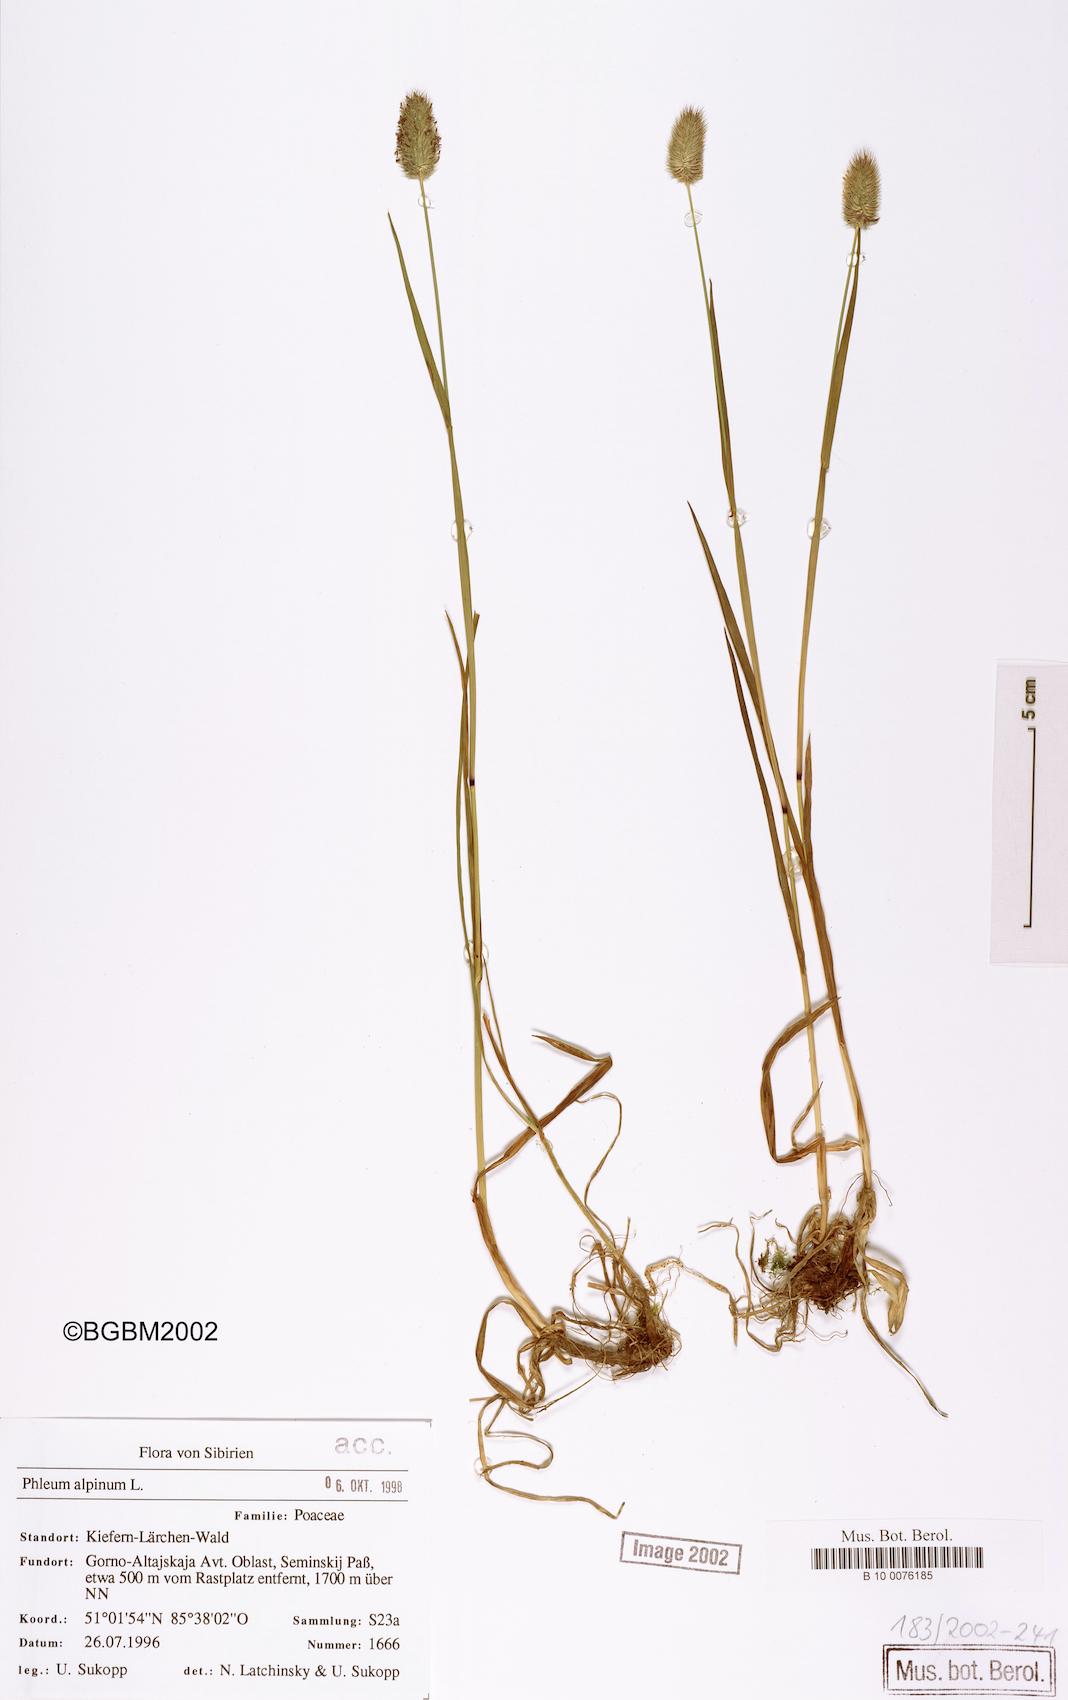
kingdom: Plantae
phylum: Tracheophyta
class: Liliopsida
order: Poales
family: Poaceae
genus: Phleum
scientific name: Phleum alpinum
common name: Alpine cat's-tail
